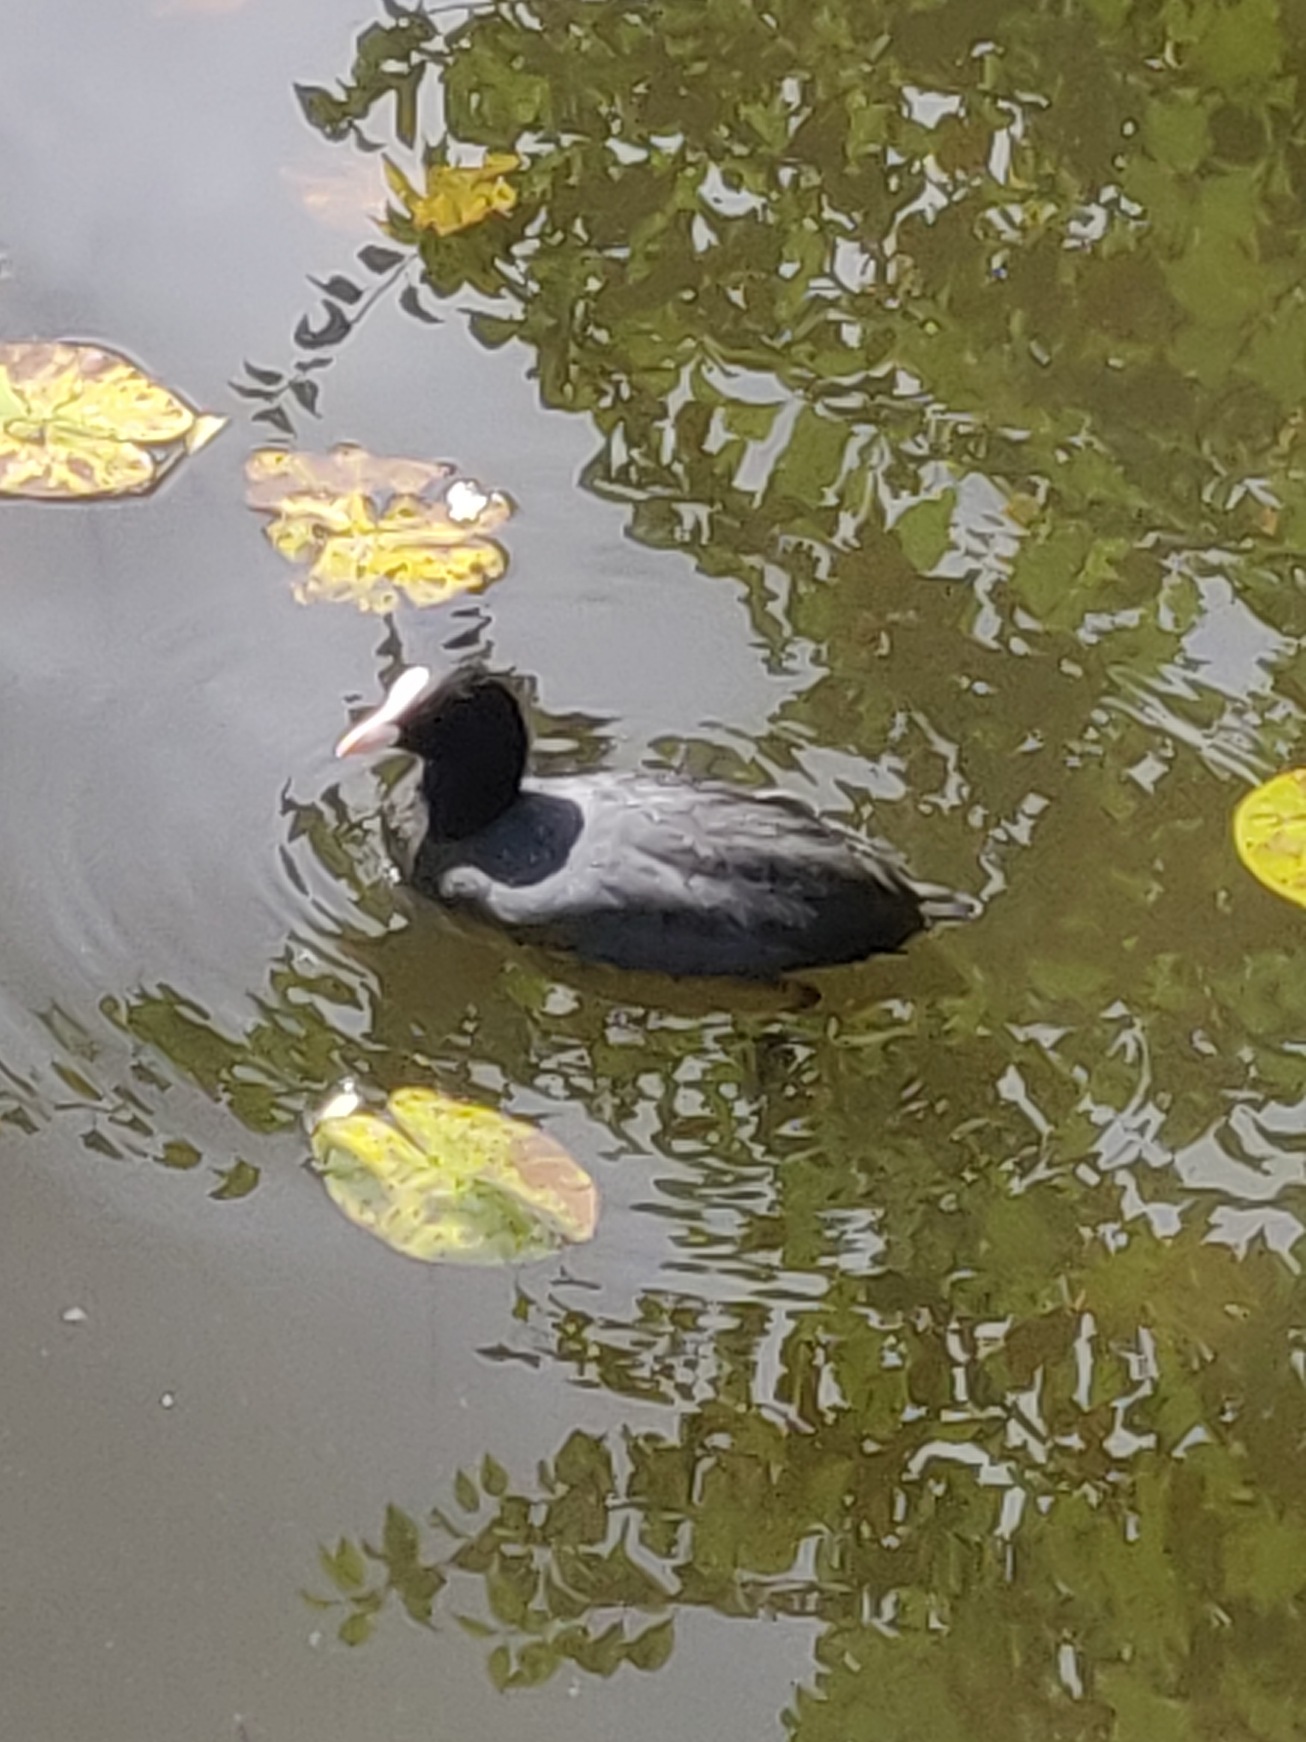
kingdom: Animalia
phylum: Chordata
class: Aves
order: Gruiformes
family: Rallidae
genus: Fulica
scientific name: Fulica atra
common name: Blishøne
